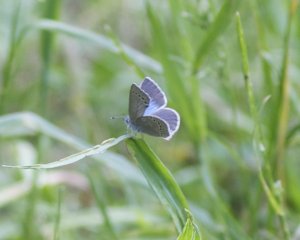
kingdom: Animalia
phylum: Arthropoda
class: Insecta
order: Lepidoptera
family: Lycaenidae
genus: Glaucopsyche
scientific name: Glaucopsyche lygdamus
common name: Silvery Blue
